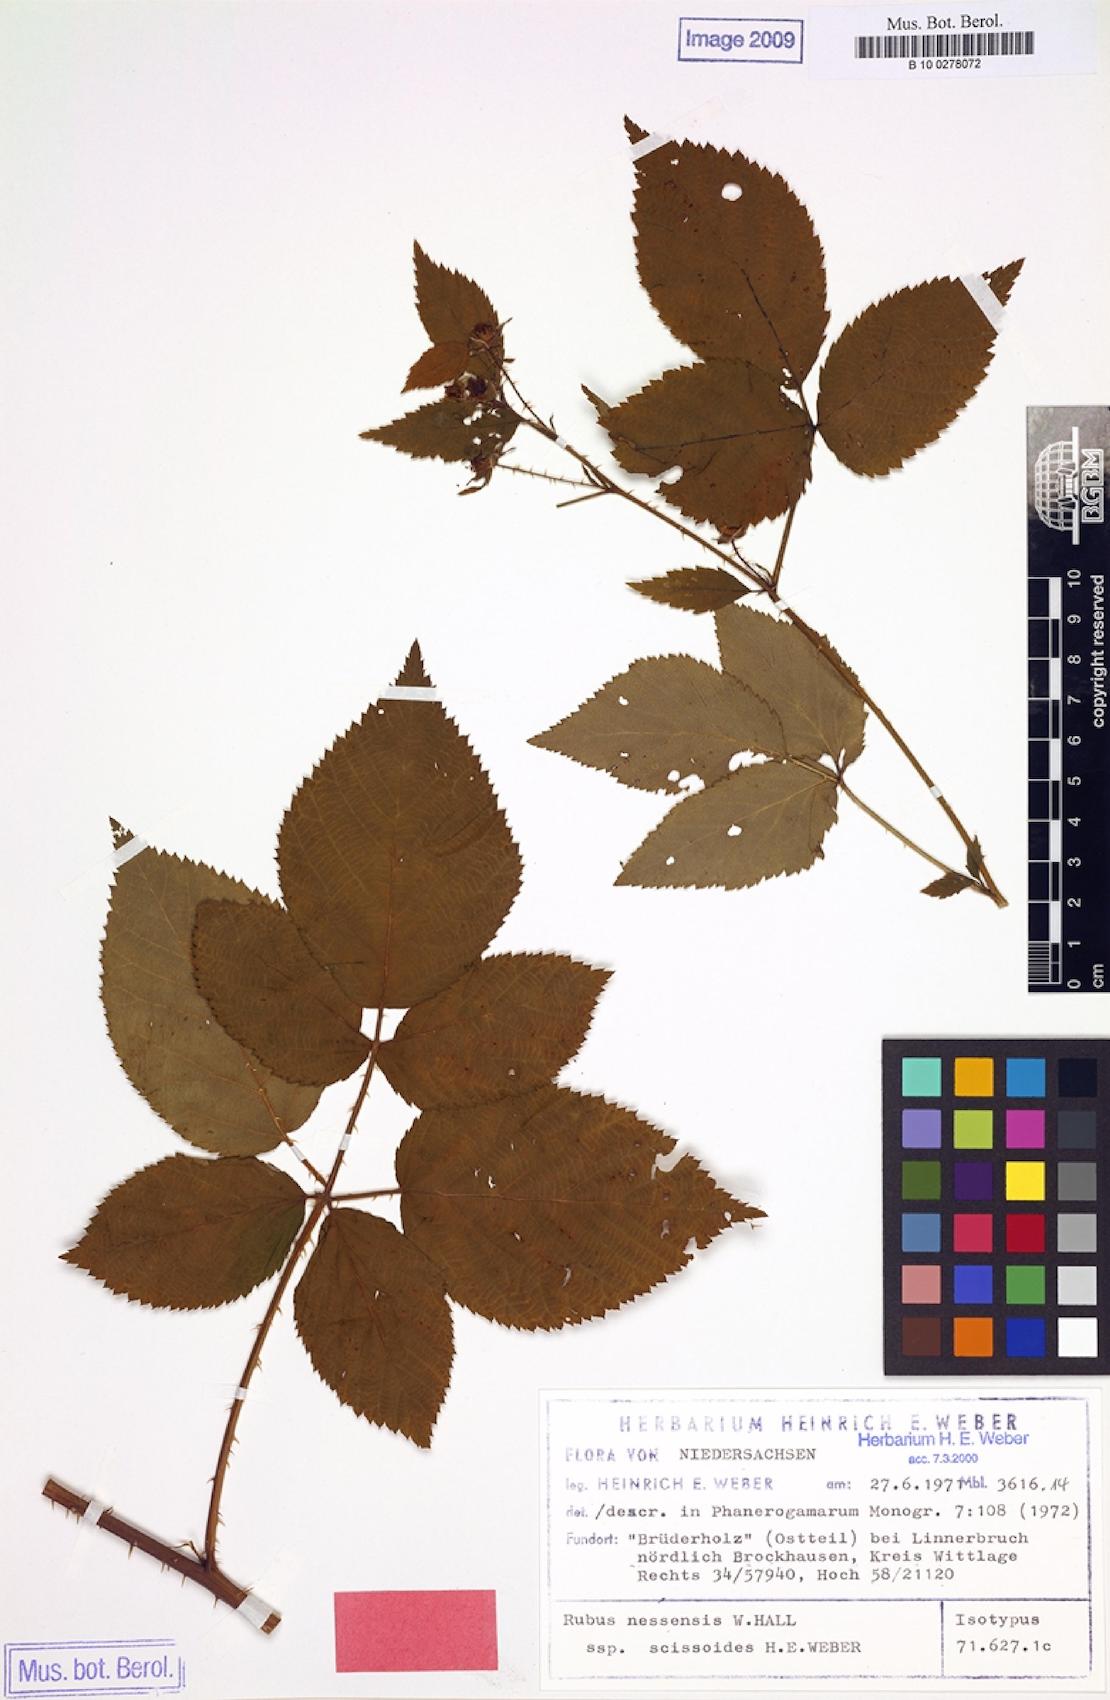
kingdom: Plantae
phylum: Tracheophyta
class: Magnoliopsida
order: Rosales
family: Rosaceae
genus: Rubus
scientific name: Rubus scissoides
